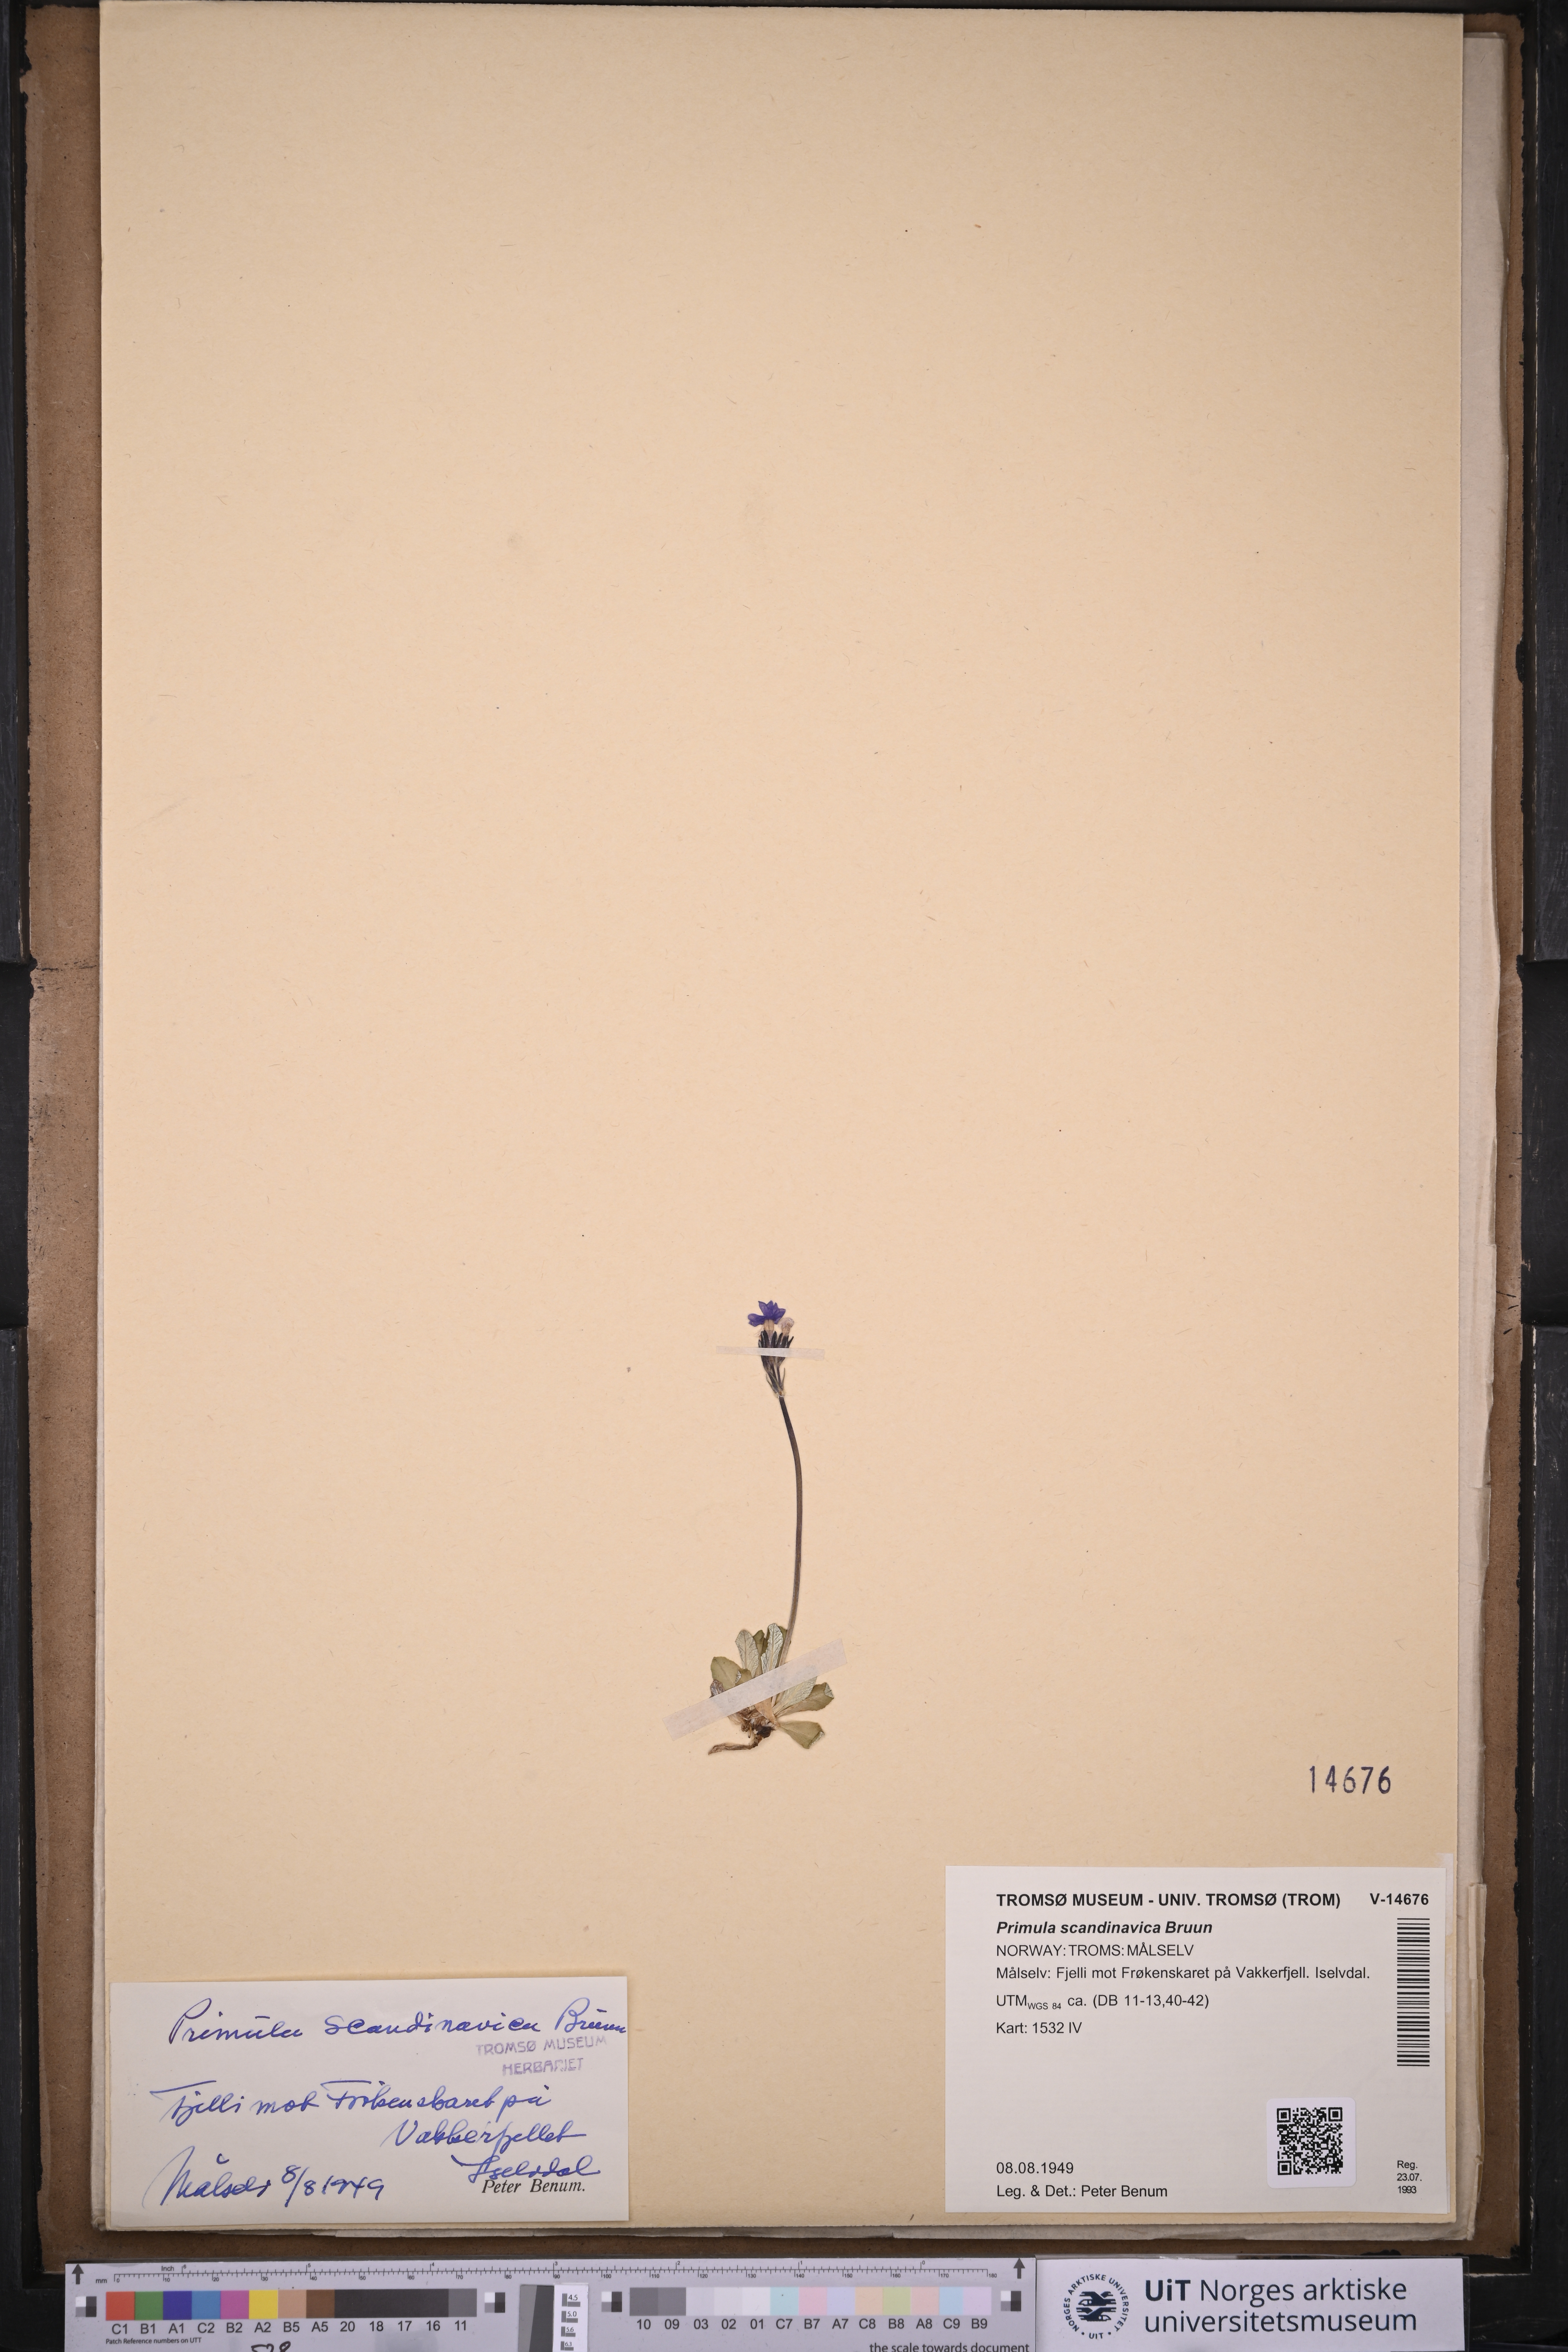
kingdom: Plantae
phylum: Tracheophyta
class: Magnoliopsida
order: Ericales
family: Primulaceae
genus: Primula
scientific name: Primula scandinavica
